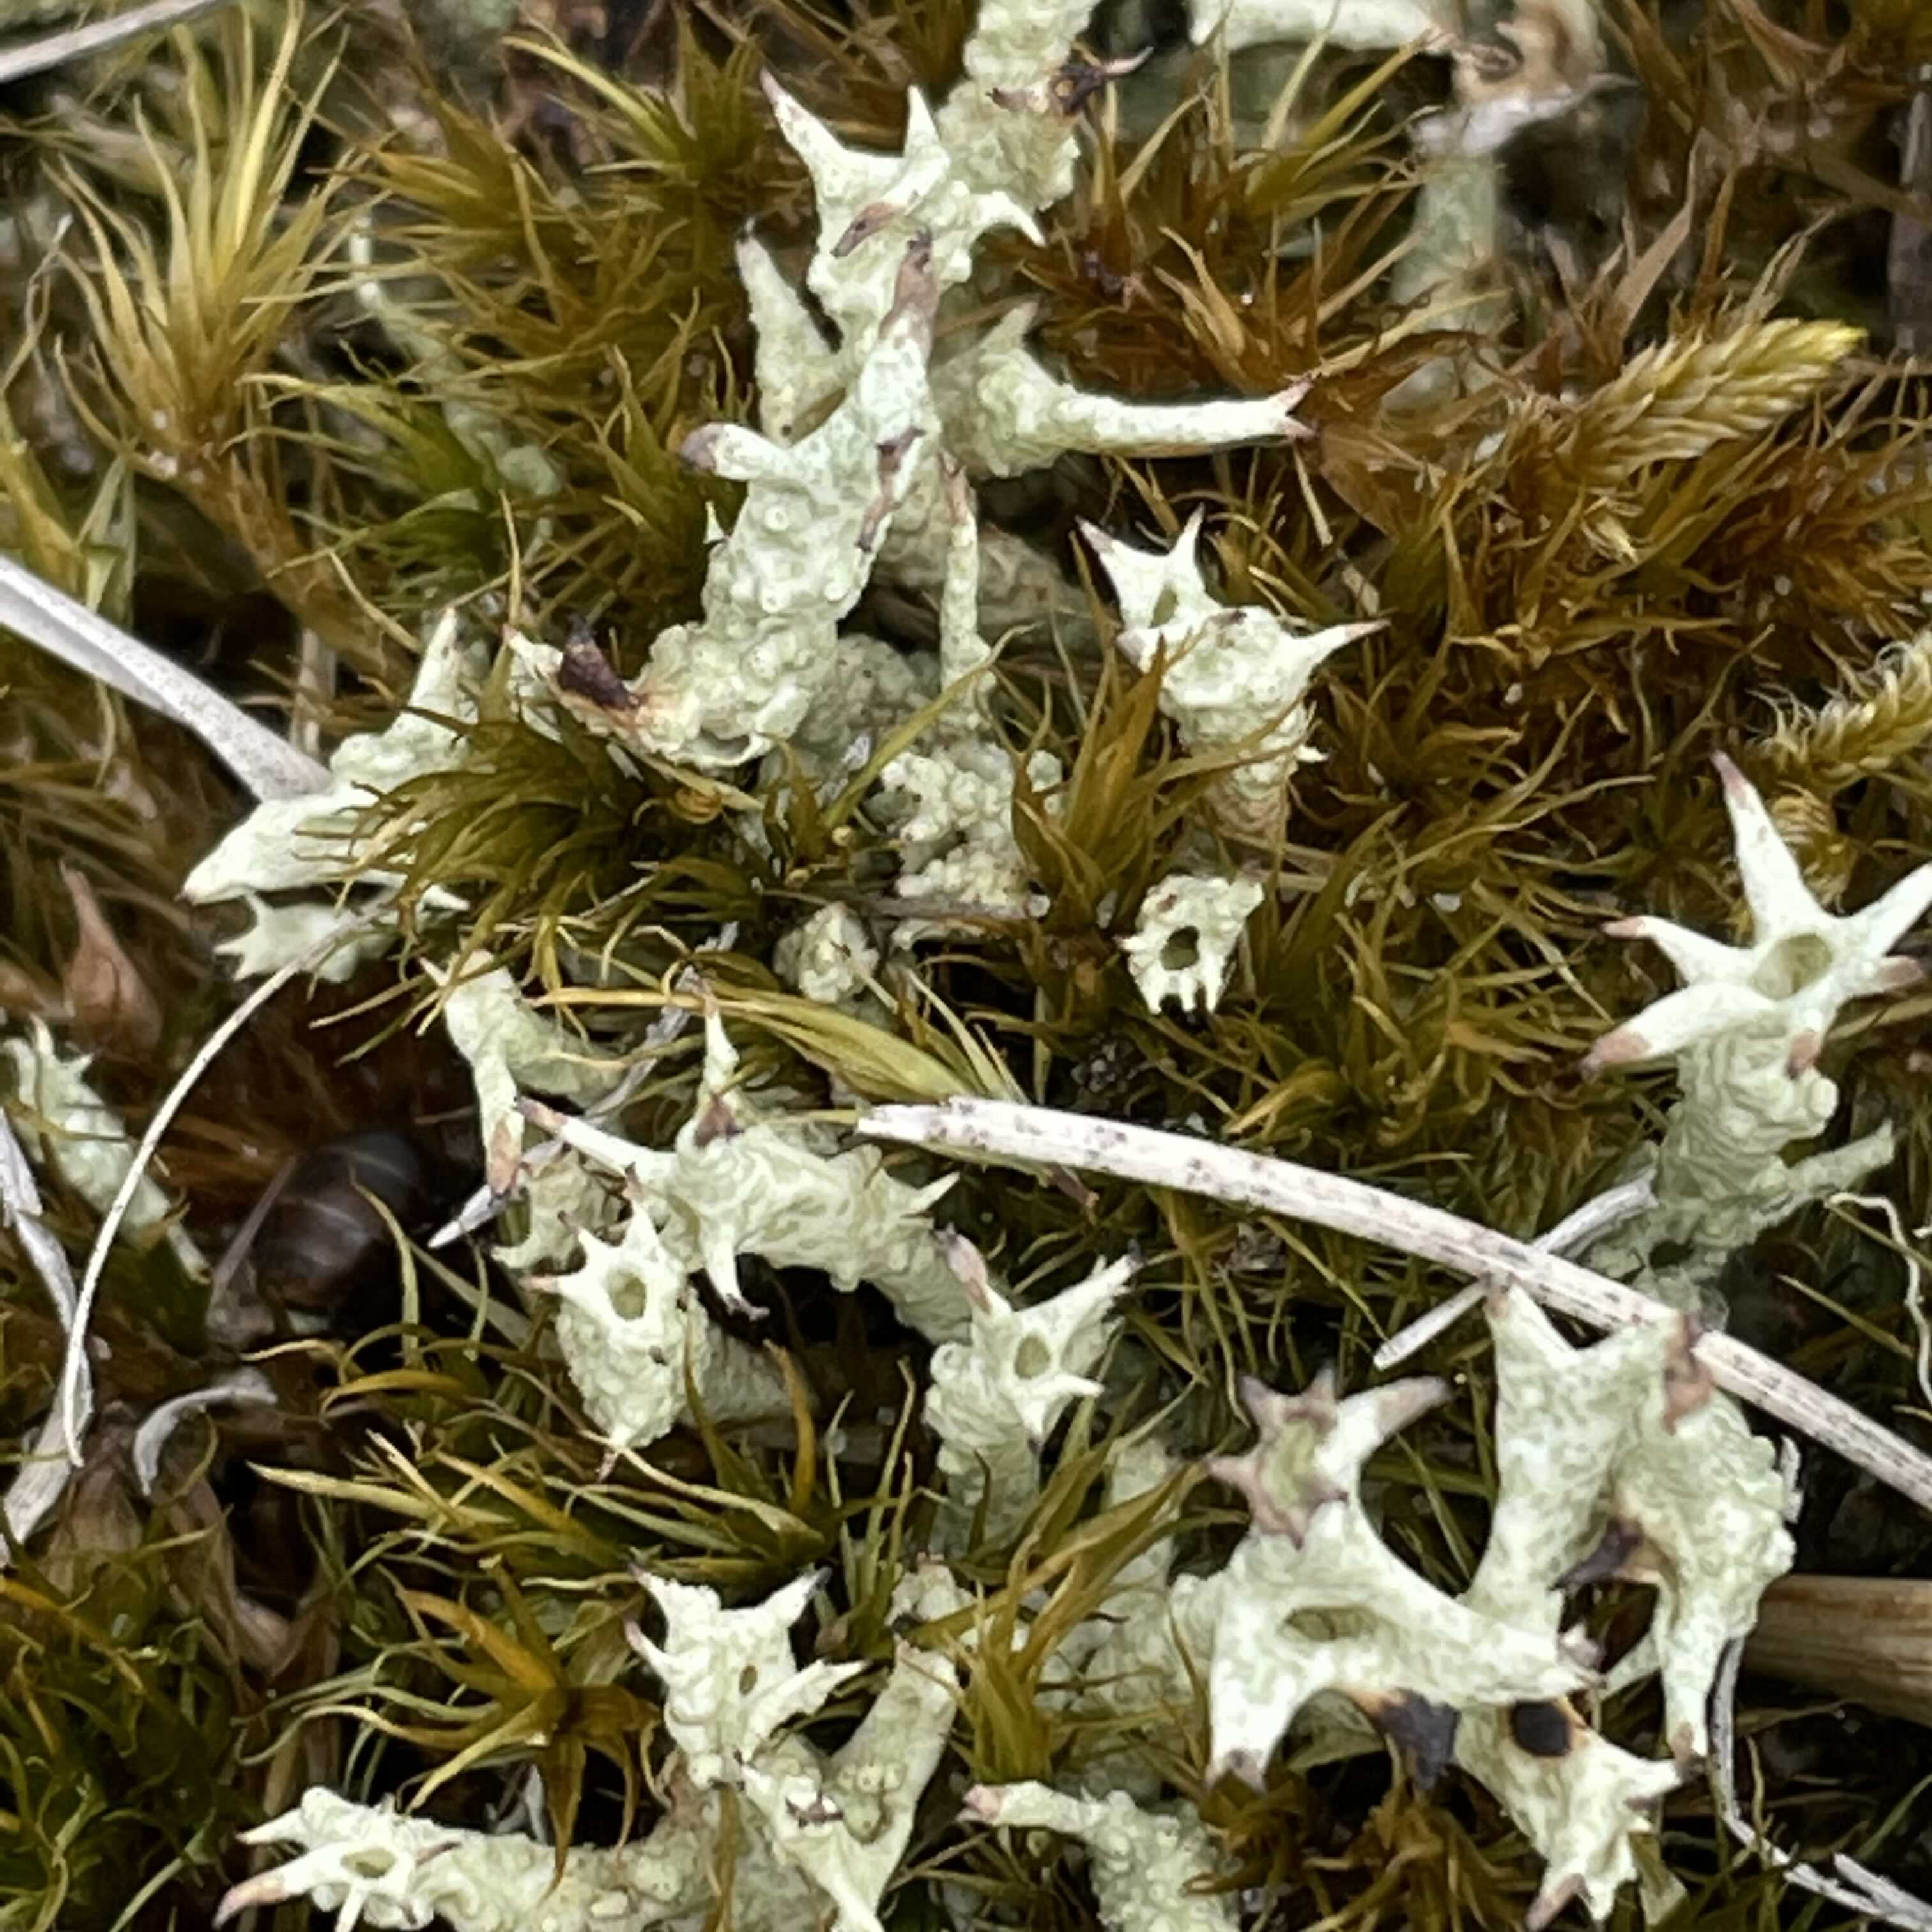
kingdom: Fungi
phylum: Ascomycota
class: Lecanoromycetes
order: Lecanorales
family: Cladoniaceae
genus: Cladonia
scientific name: Cladonia uncialis
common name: pigget bægerlav
